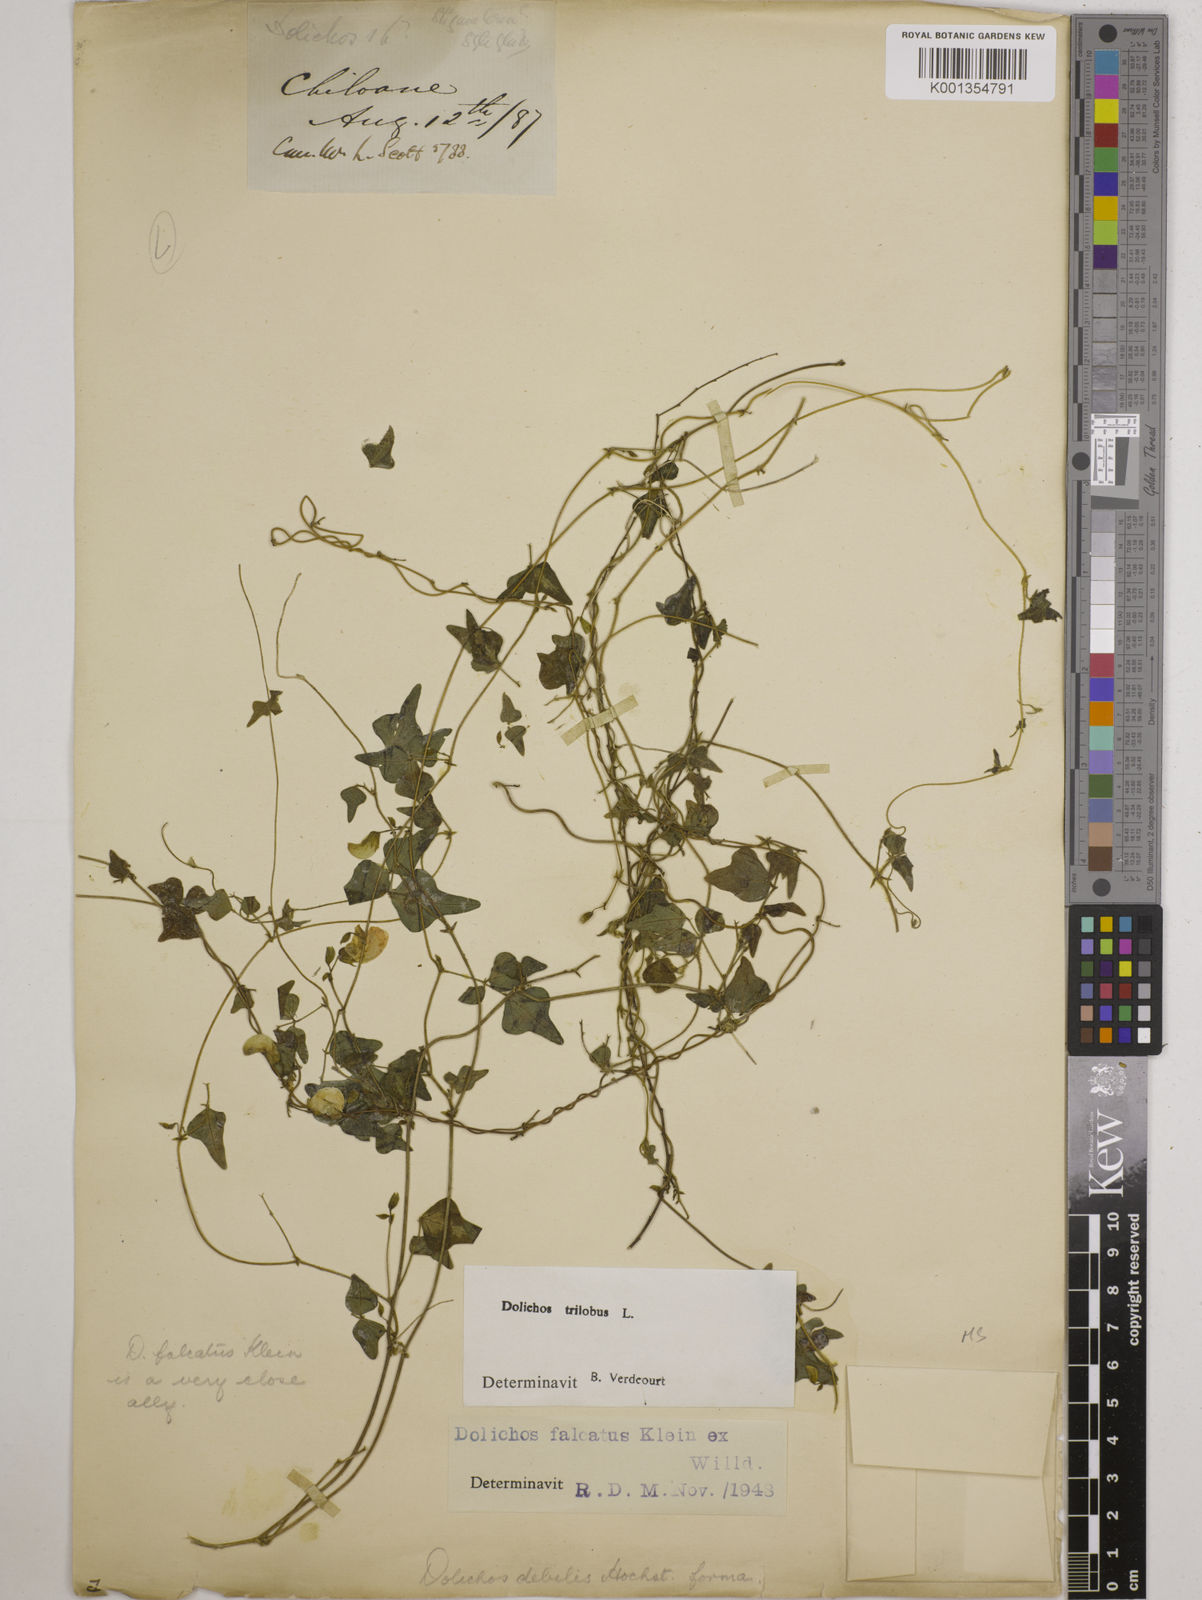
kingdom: Plantae
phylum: Tracheophyta
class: Magnoliopsida
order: Fabales
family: Fabaceae
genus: Dolichos
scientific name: Dolichos
